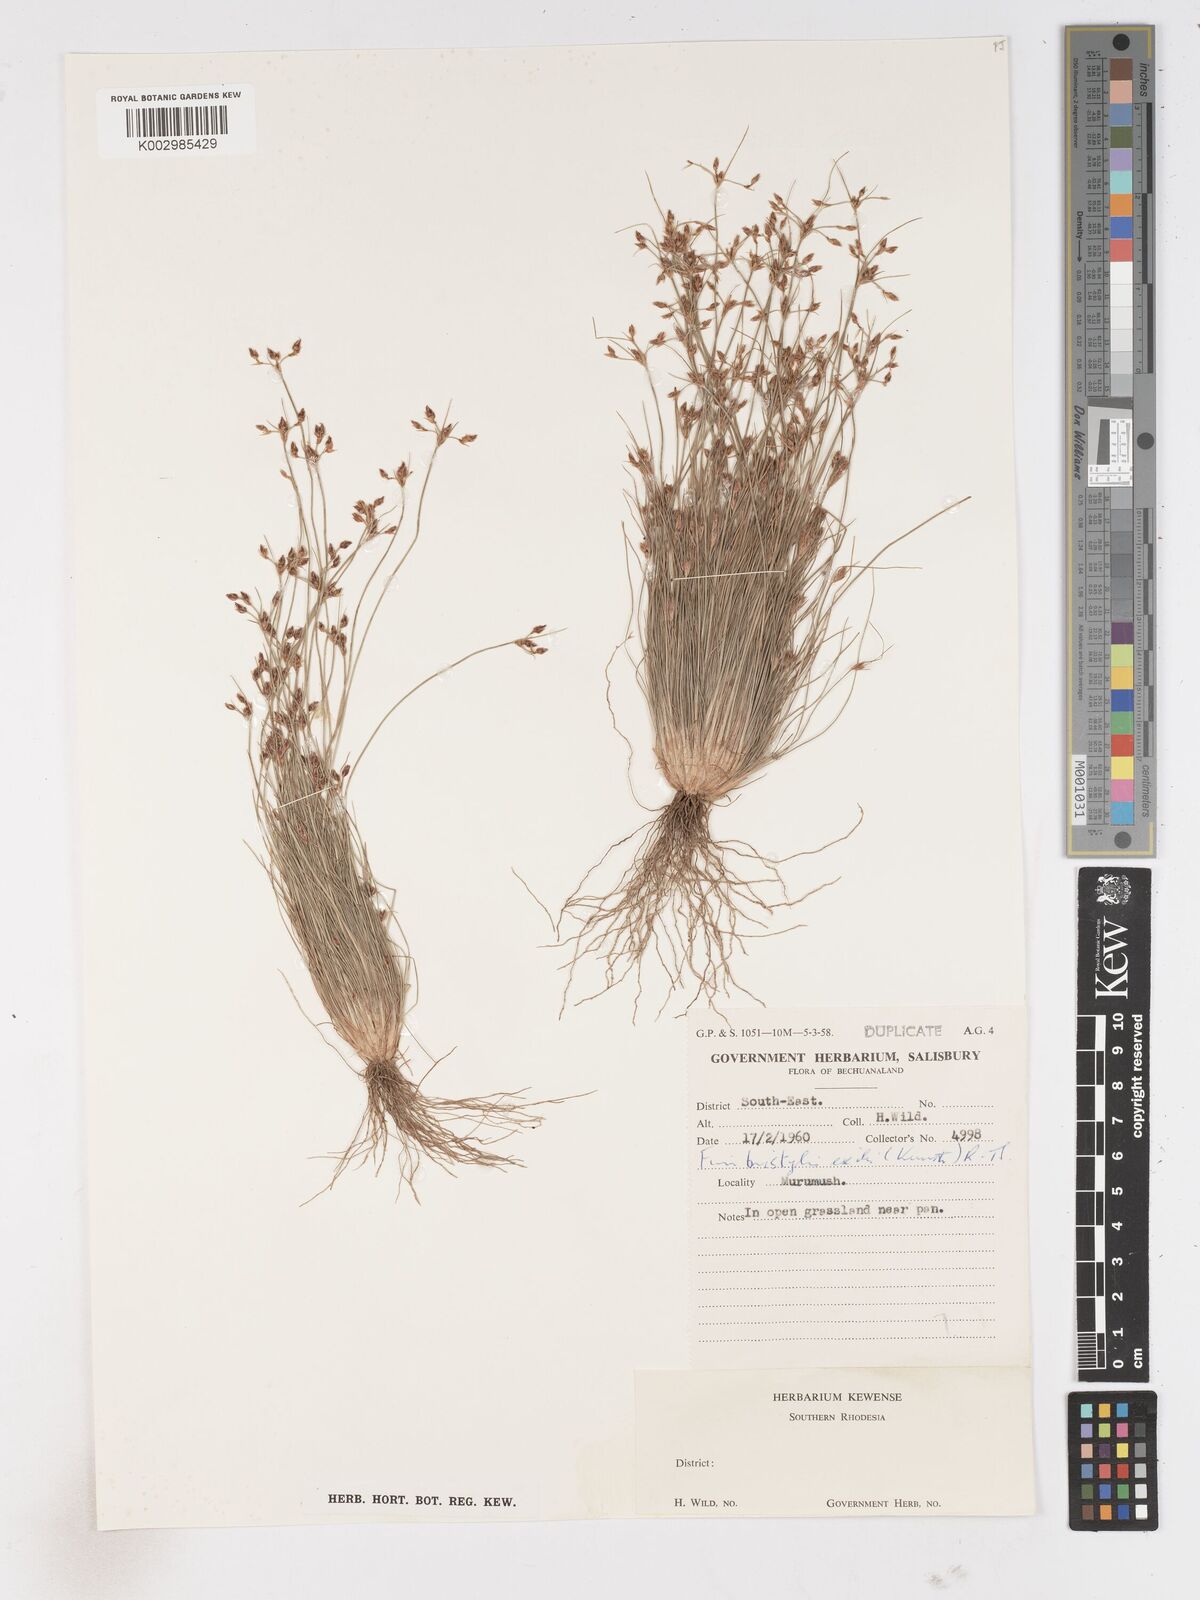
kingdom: Plantae
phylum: Tracheophyta
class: Liliopsida
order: Poales
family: Cyperaceae
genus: Fimbristylis
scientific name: Fimbristylis
